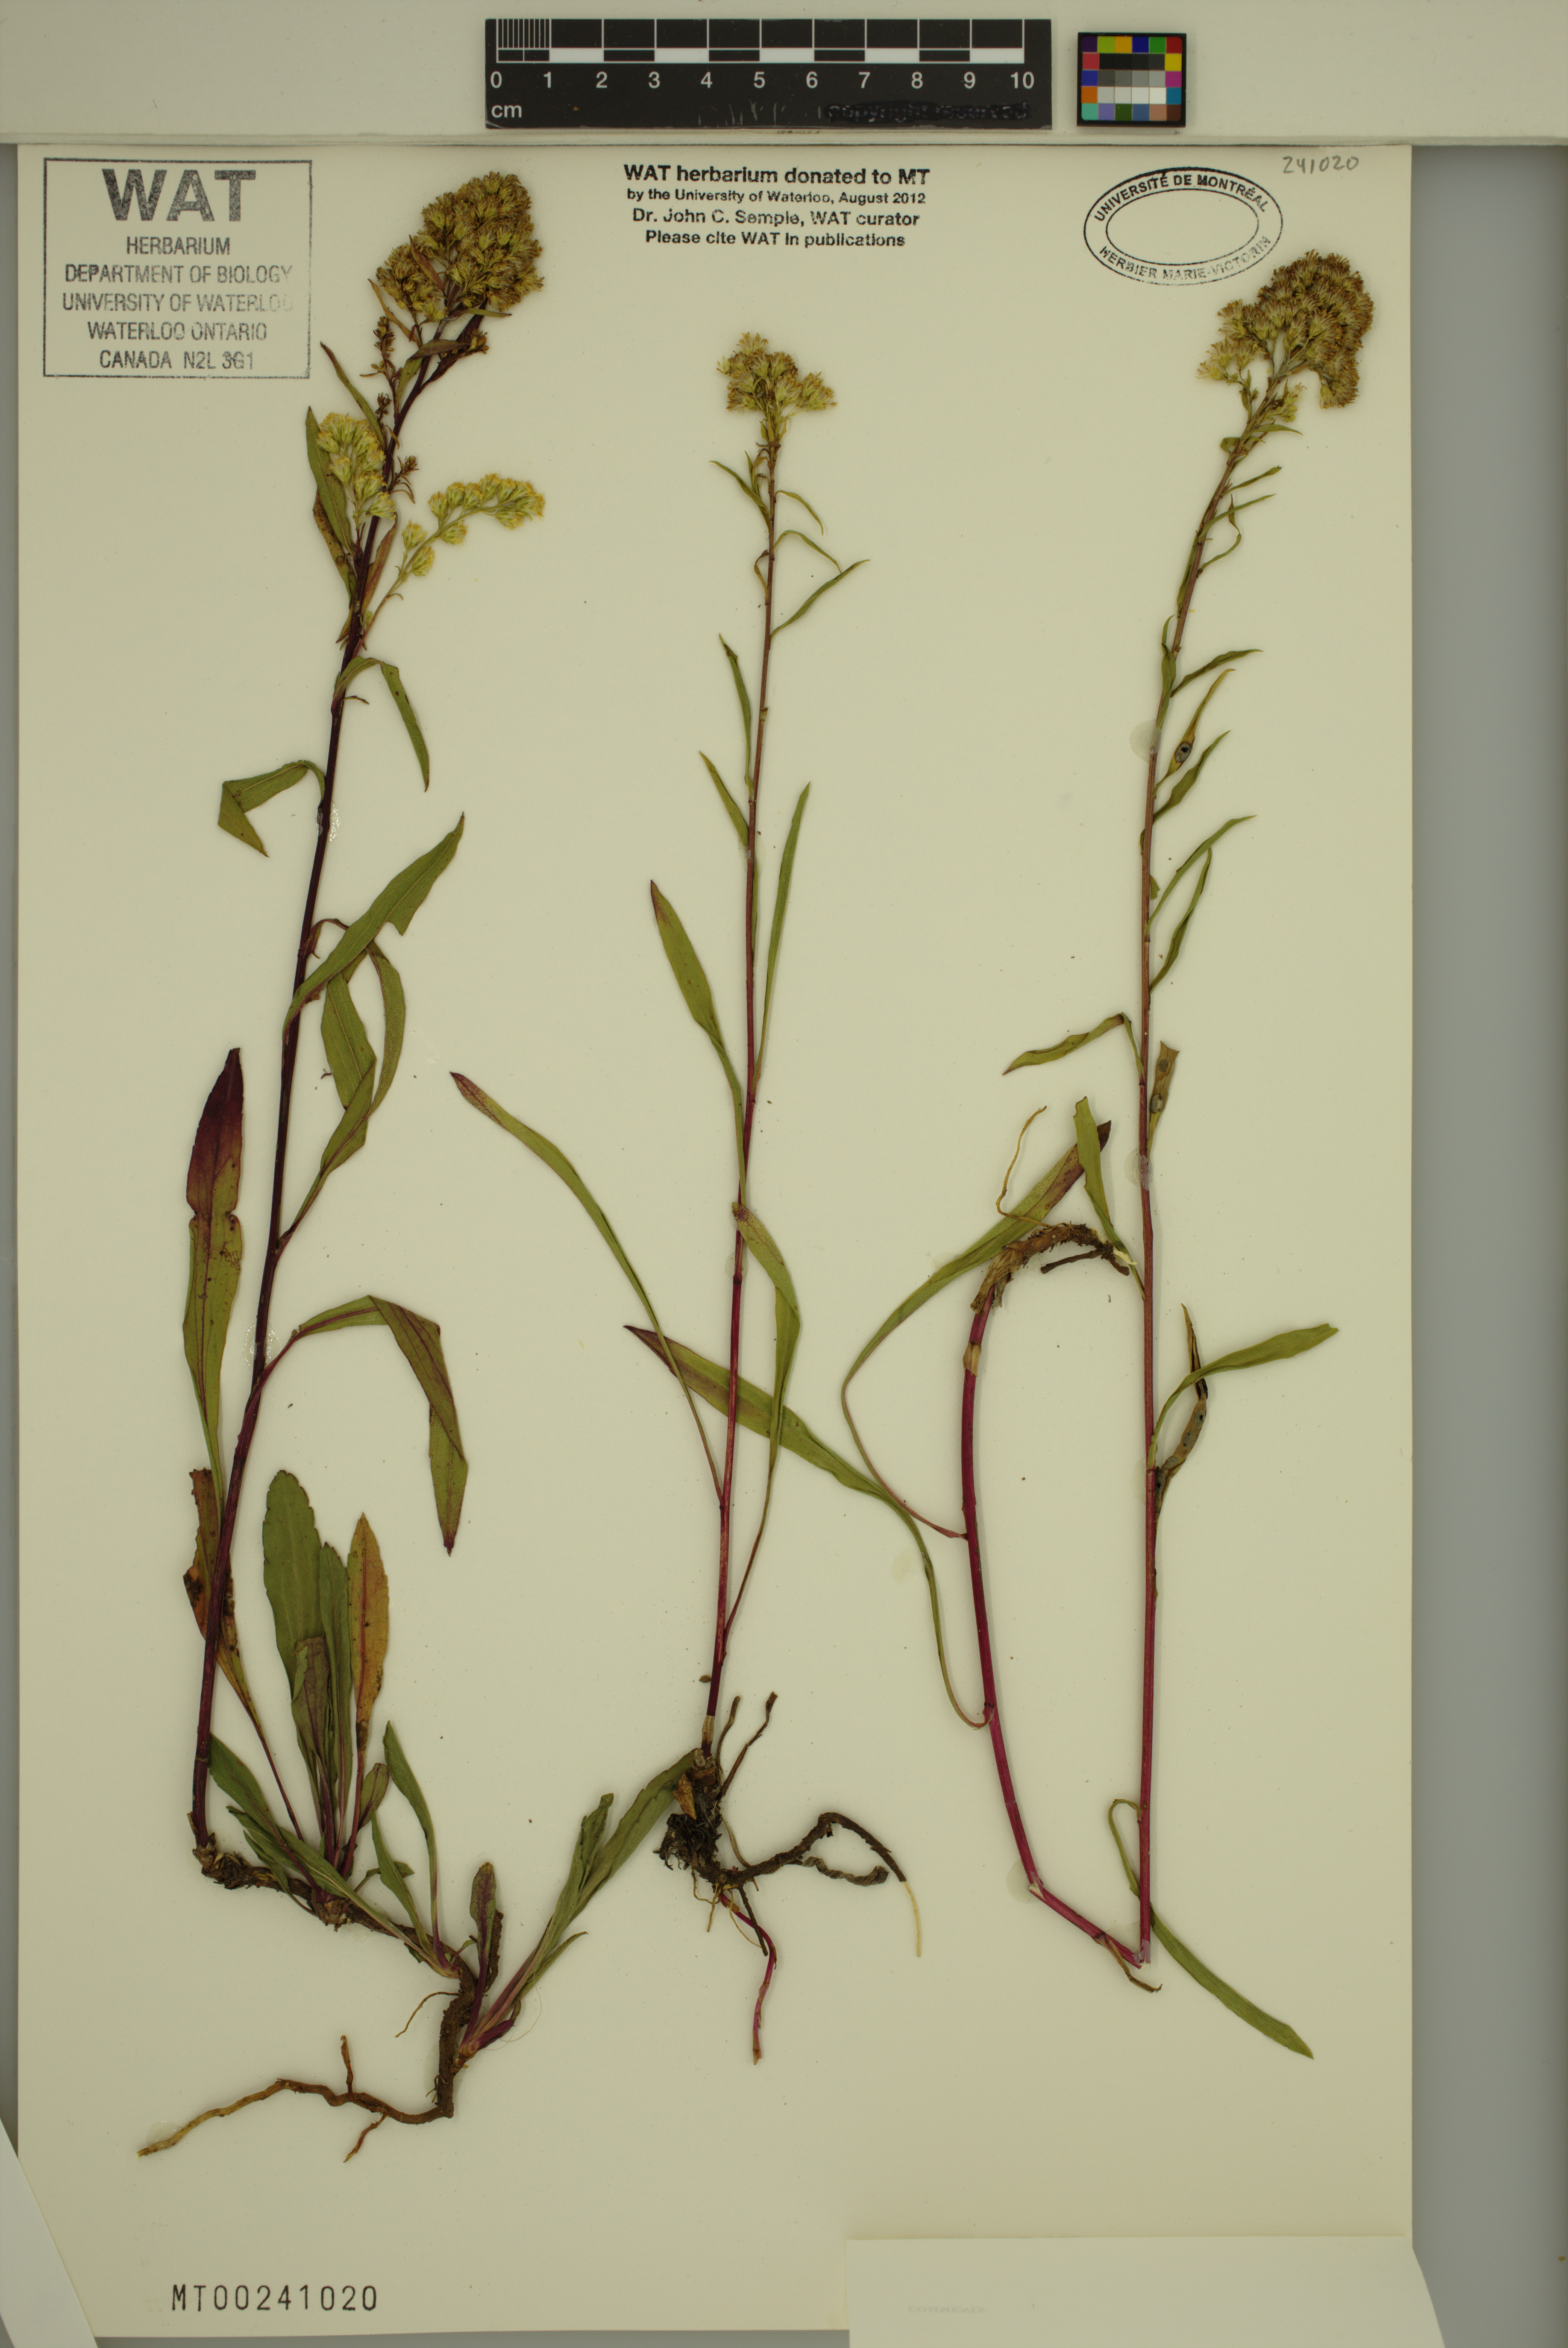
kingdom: Plantae
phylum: Tracheophyta
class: Magnoliopsida
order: Asterales
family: Asteraceae
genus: Solidago
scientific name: Solidago missouriensis
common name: Prairie goldenrod
